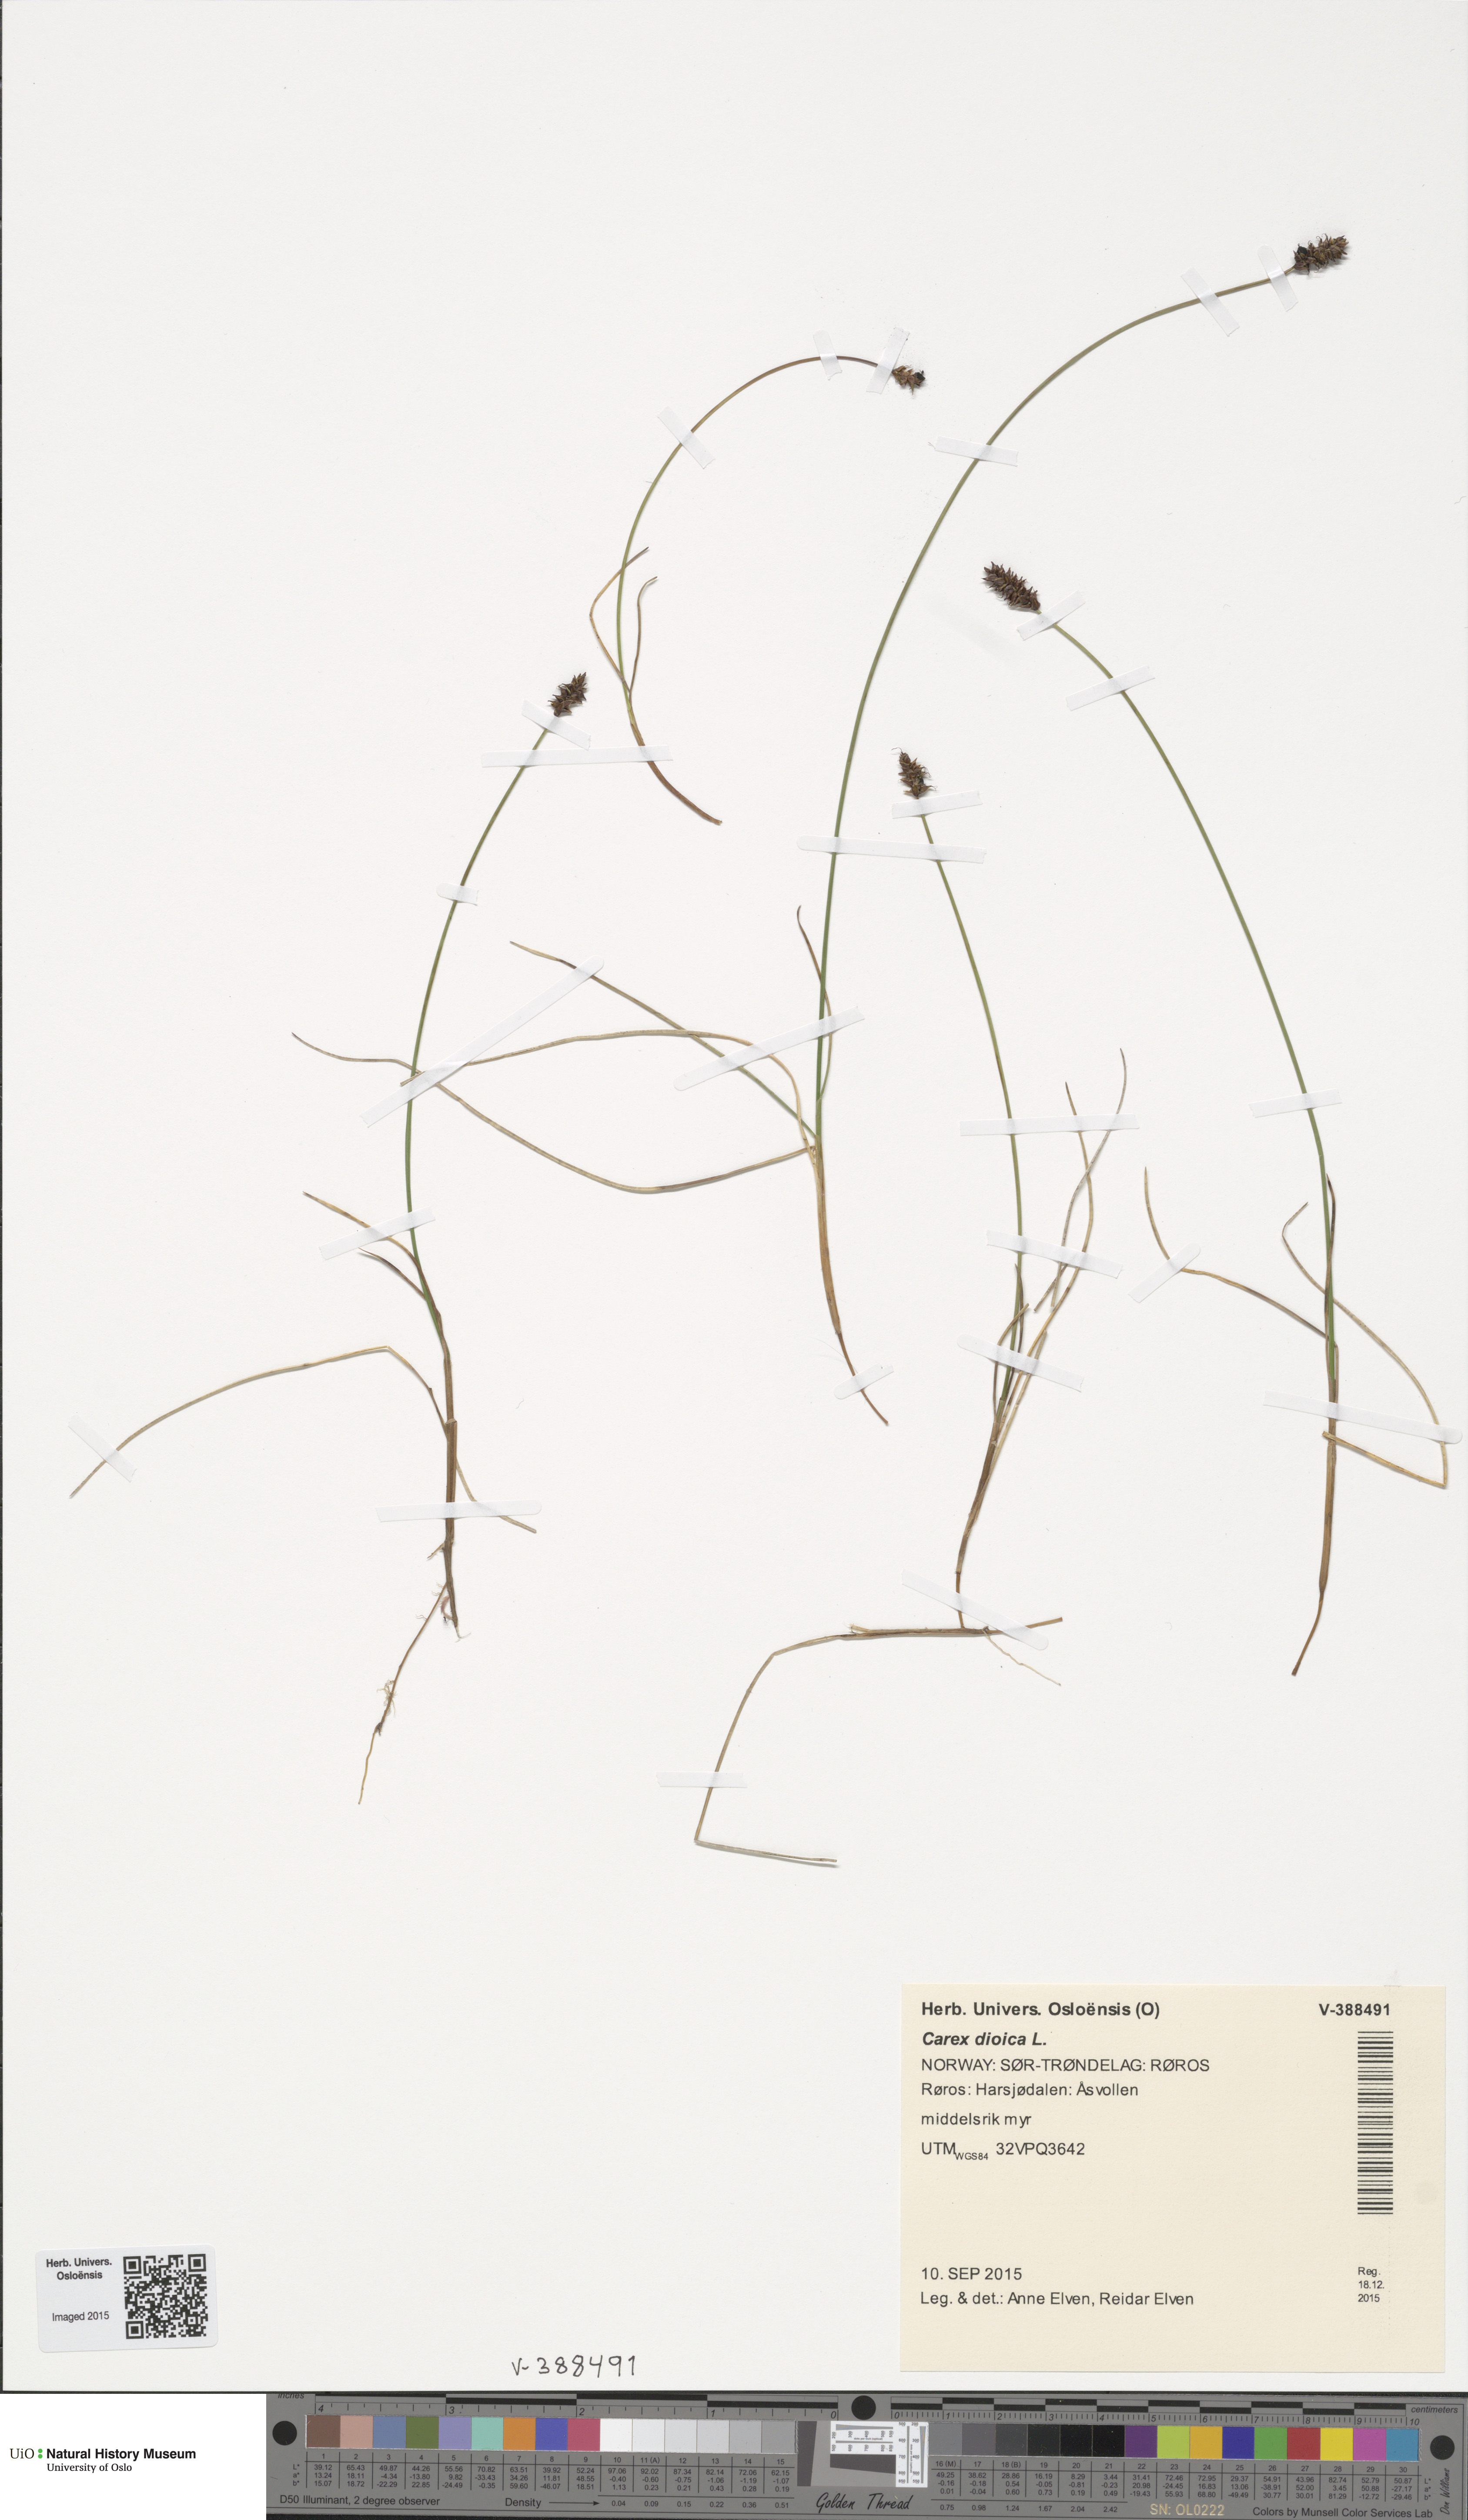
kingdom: Plantae
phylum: Tracheophyta
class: Liliopsida
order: Poales
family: Cyperaceae
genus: Carex
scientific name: Carex dioica
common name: Dioecious sedge
